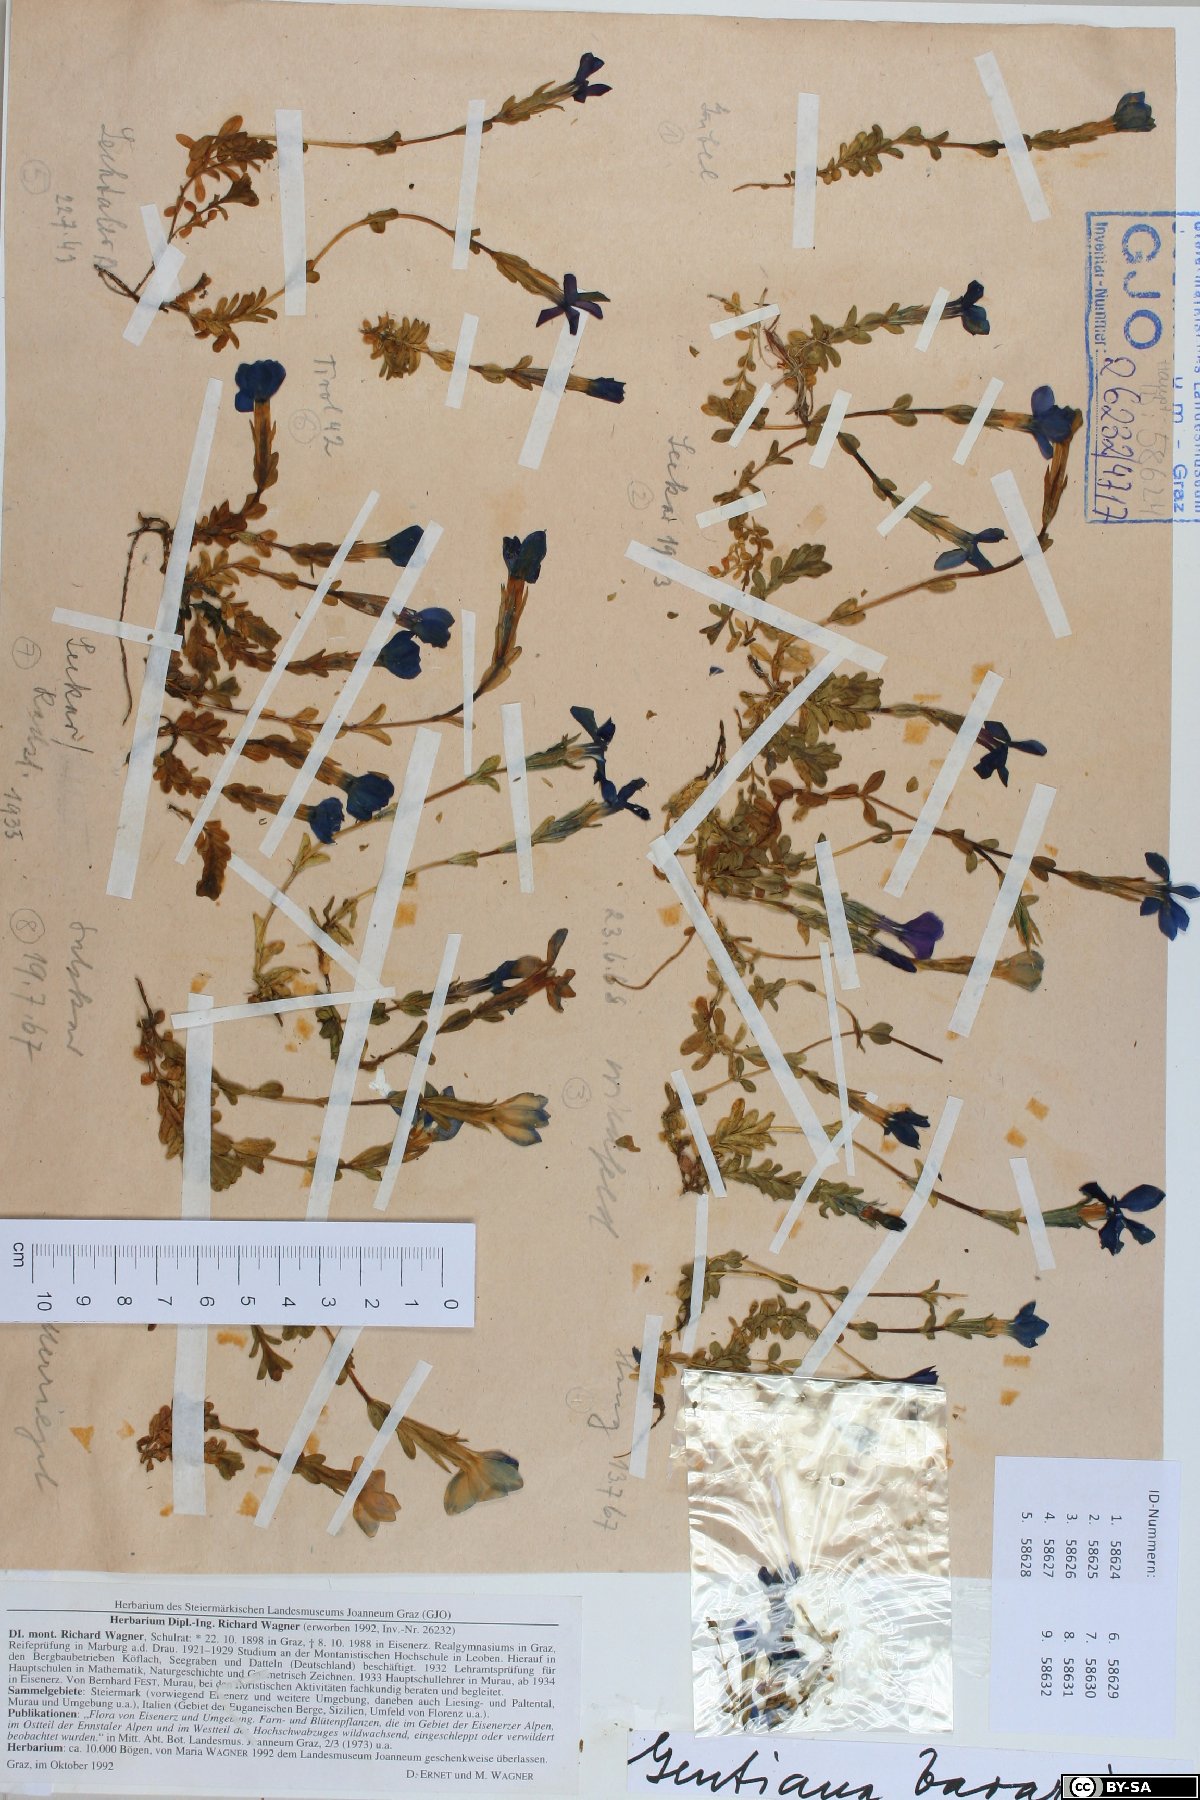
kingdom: Plantae
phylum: Tracheophyta
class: Magnoliopsida
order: Gentianales
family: Gentianaceae
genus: Gentiana
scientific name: Gentiana bavarica
